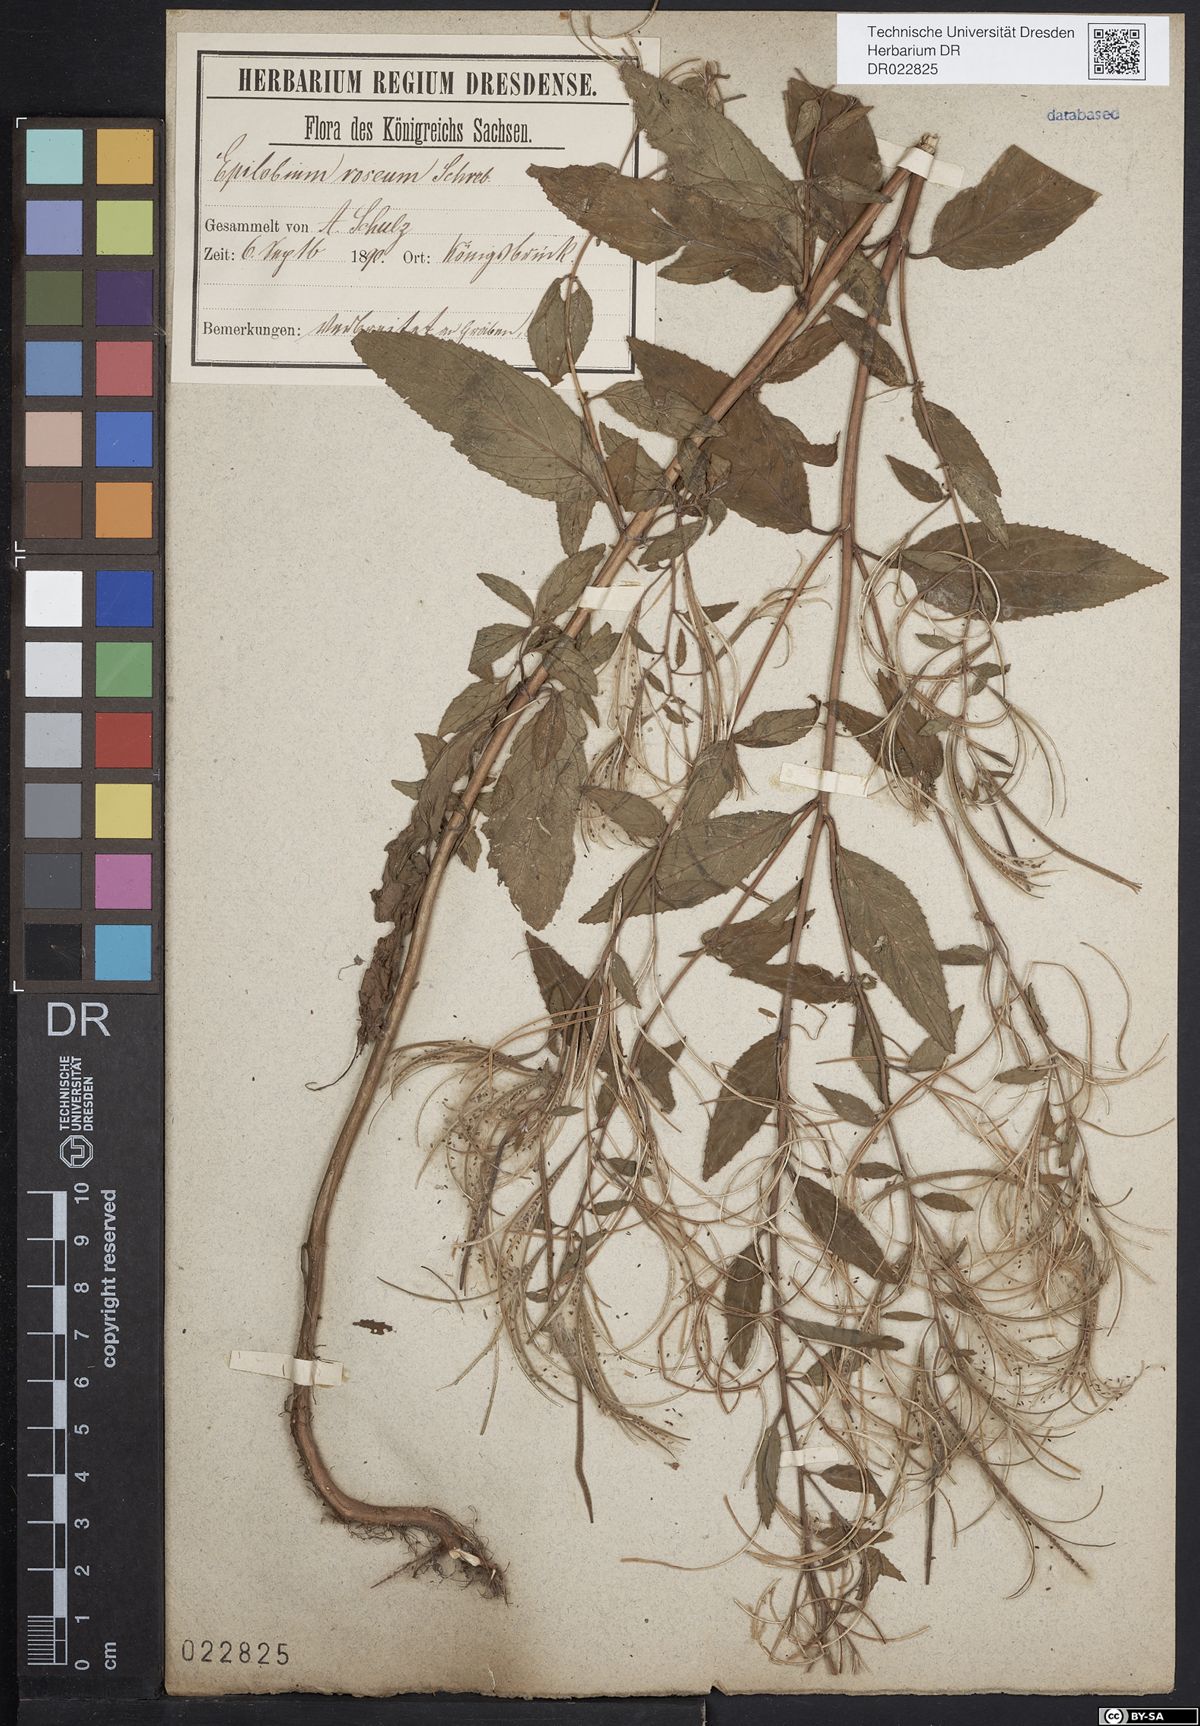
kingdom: Plantae
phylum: Tracheophyta
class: Magnoliopsida
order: Myrtales
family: Onagraceae
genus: Epilobium
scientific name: Epilobium roseum
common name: Pale willowherb
